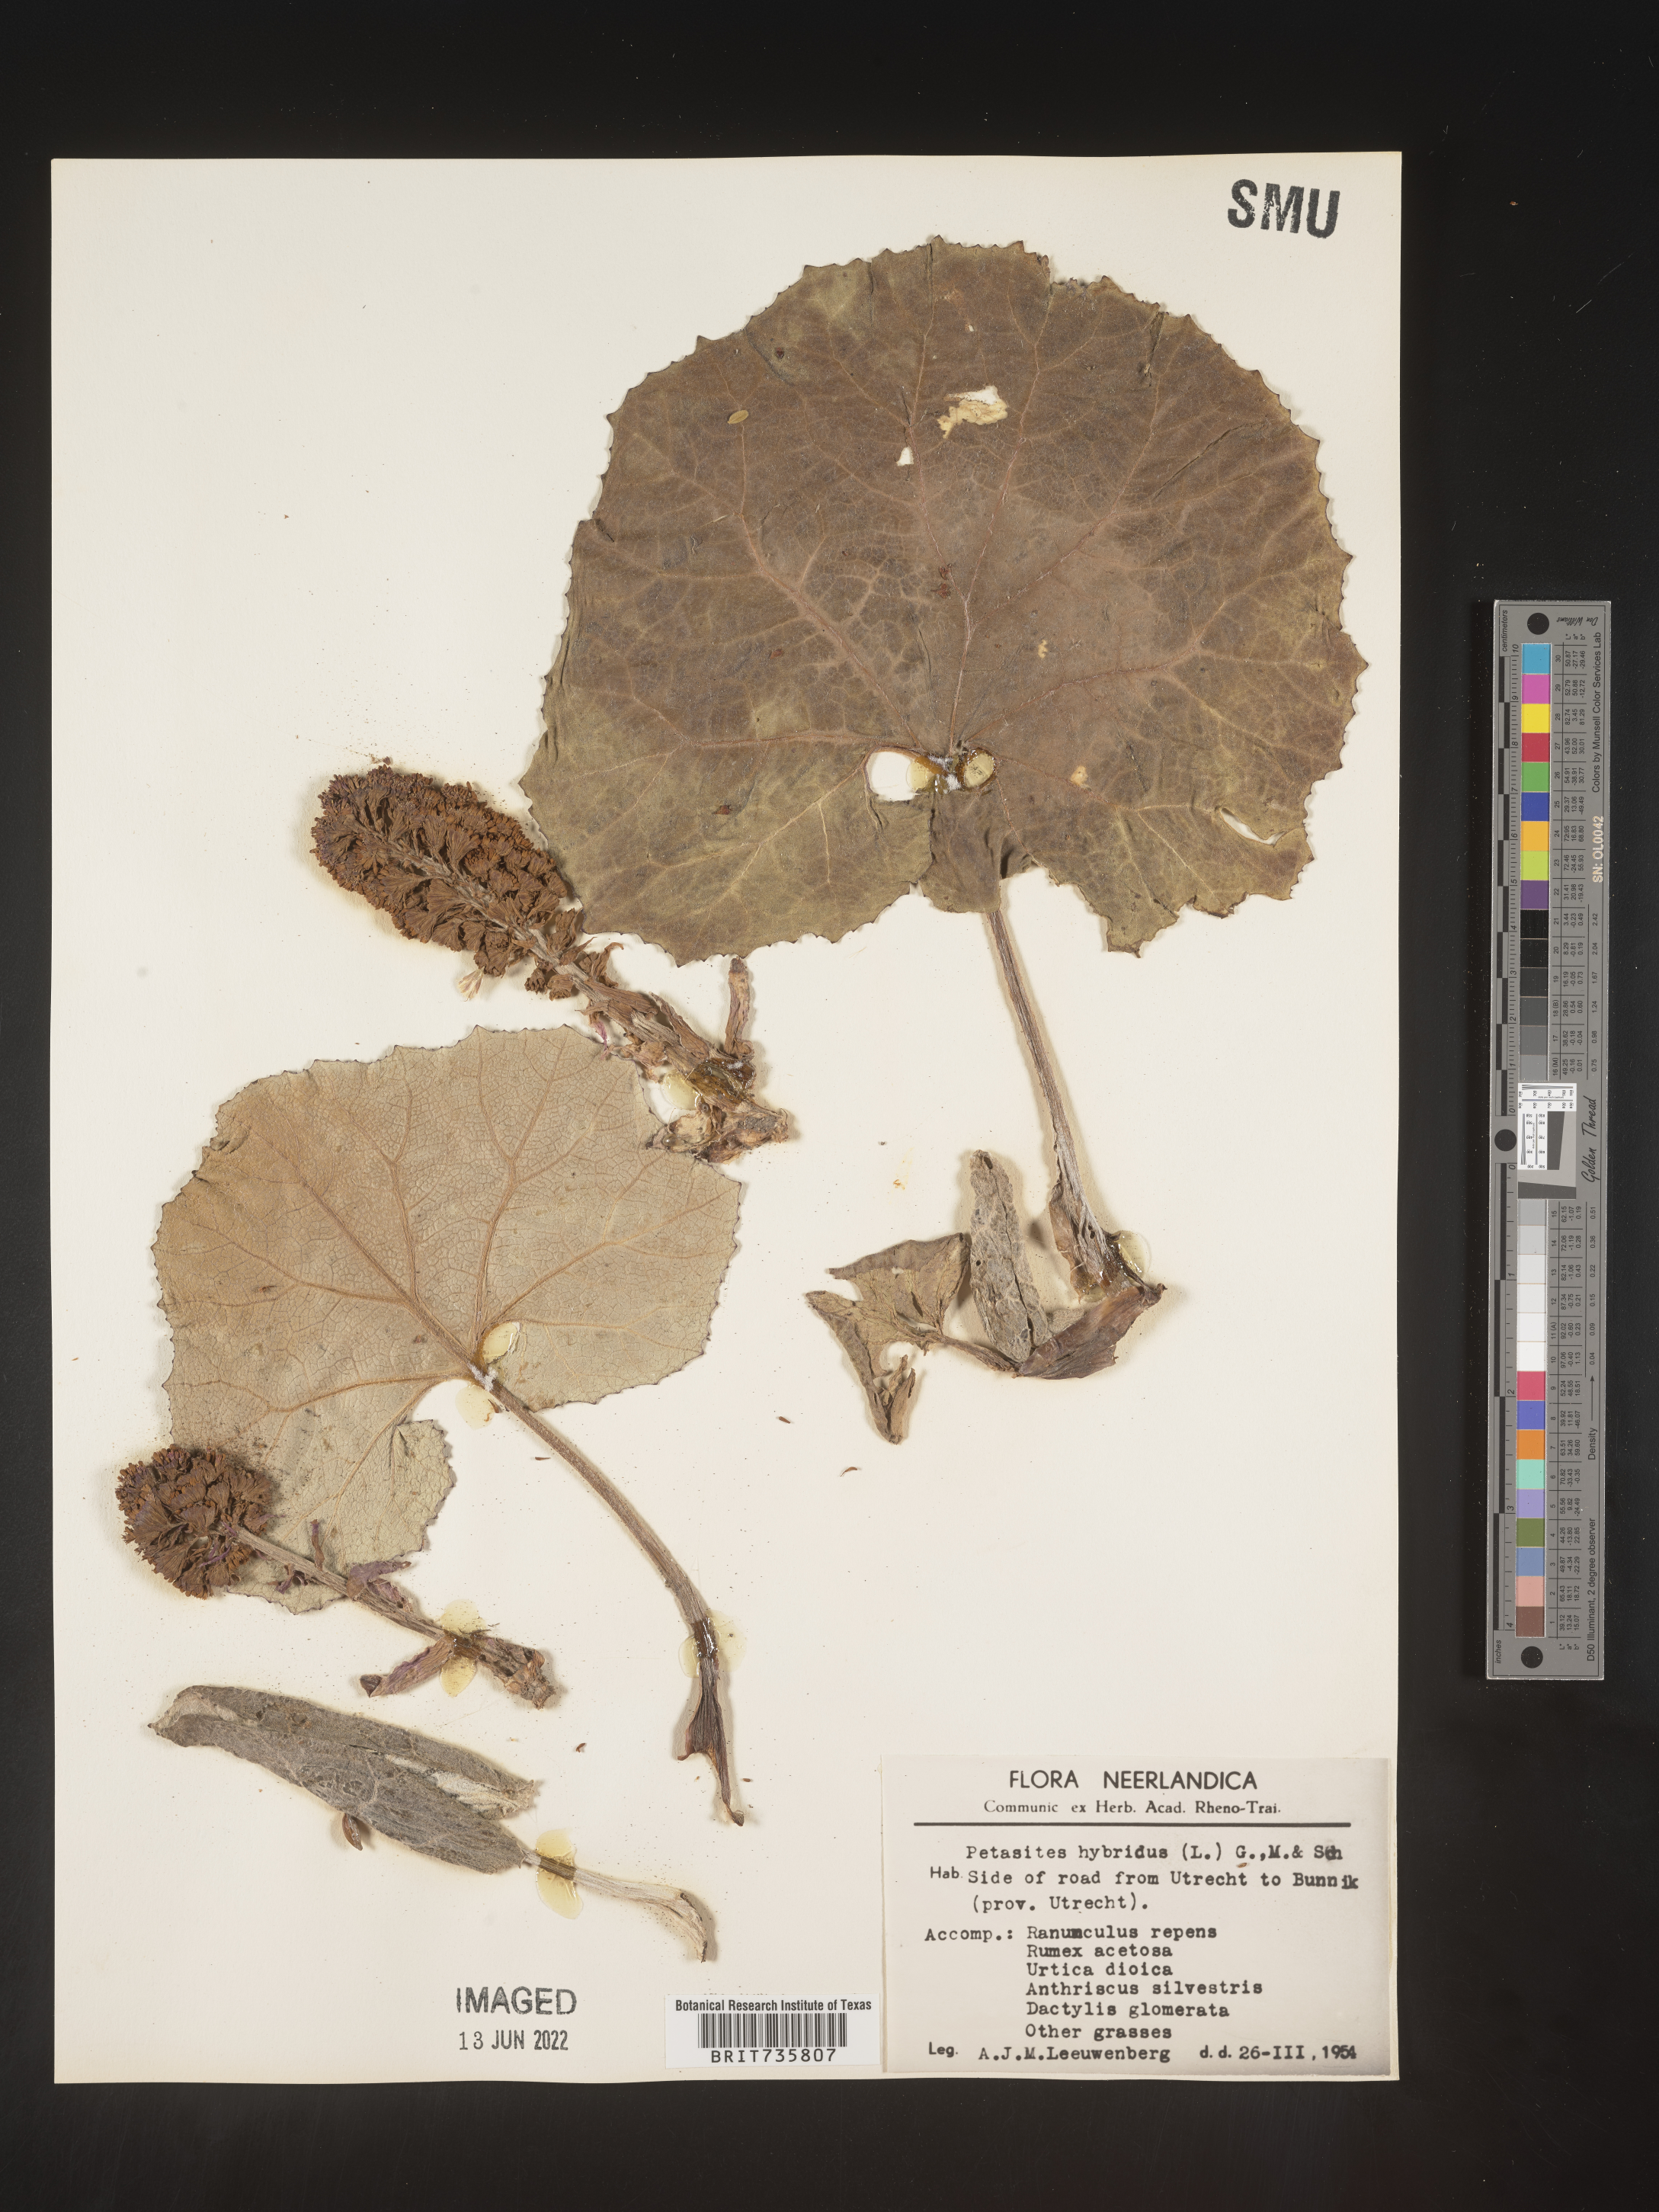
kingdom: Plantae
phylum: Tracheophyta
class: Magnoliopsida
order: Asterales
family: Asteraceae
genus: Petasites
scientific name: Petasites
